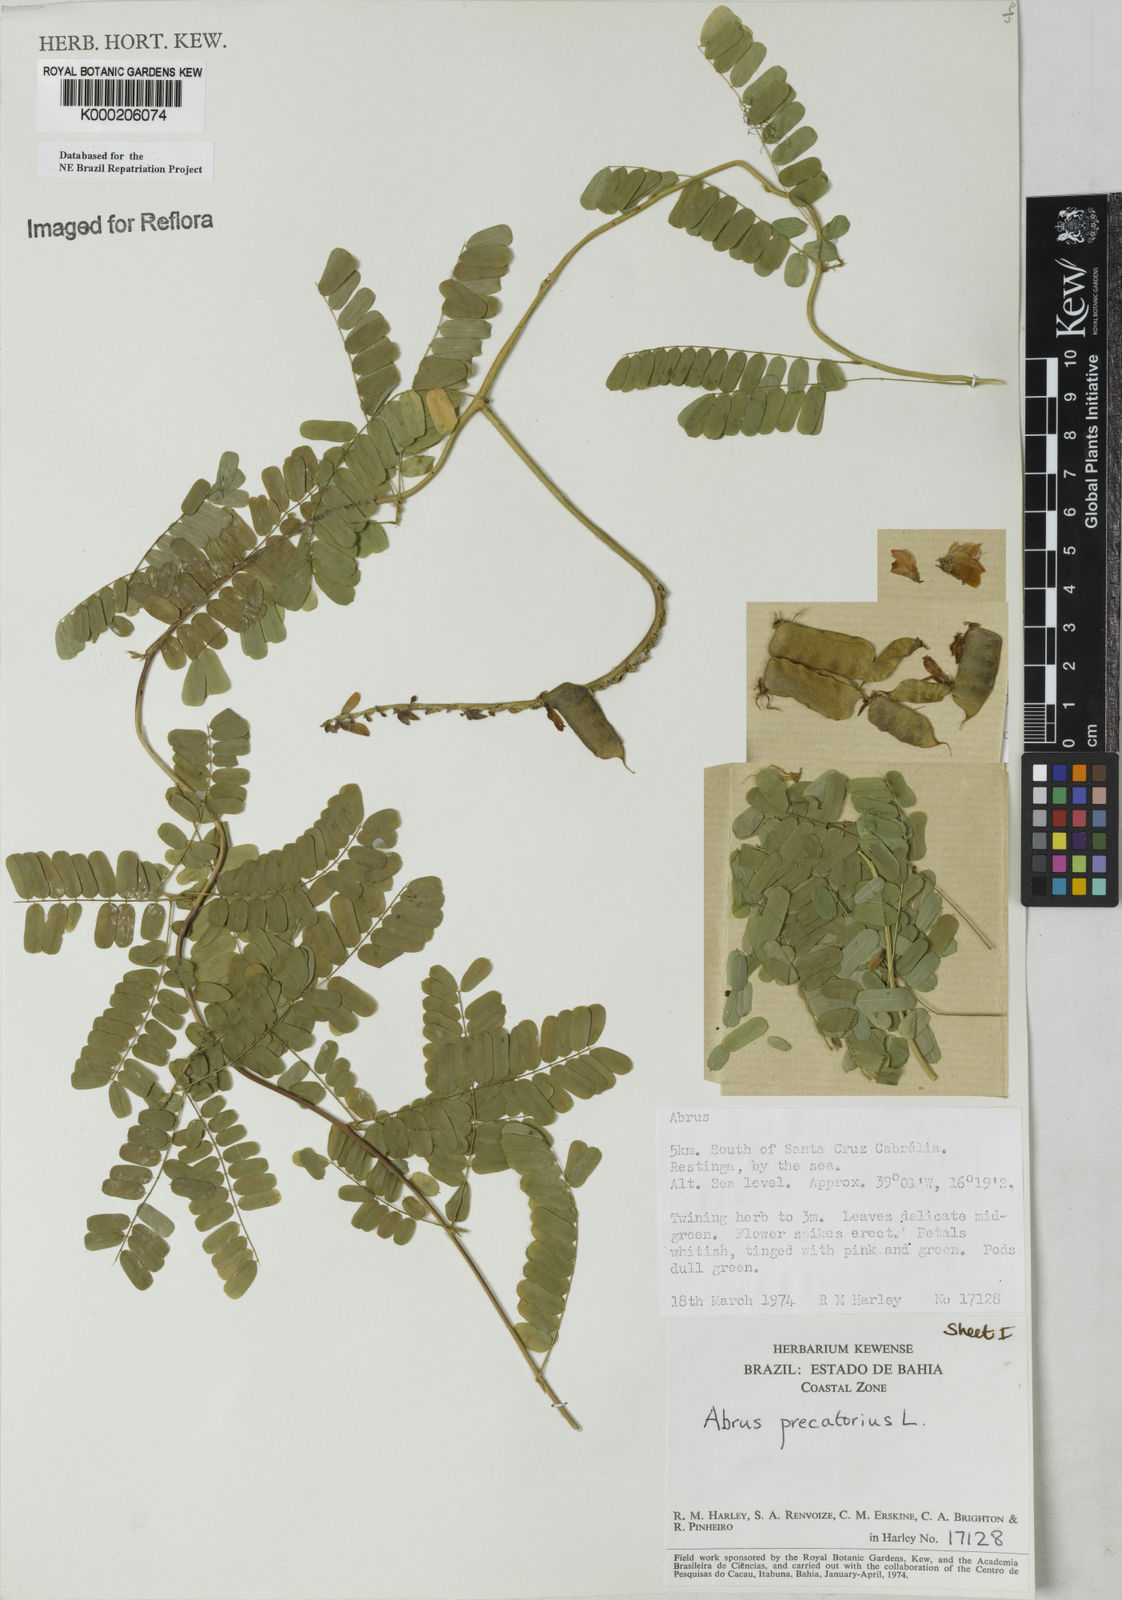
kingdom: Plantae
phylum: Tracheophyta
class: Magnoliopsida
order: Fabales
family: Fabaceae
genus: Abrus
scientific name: Abrus precatorius
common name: Rosarypea
